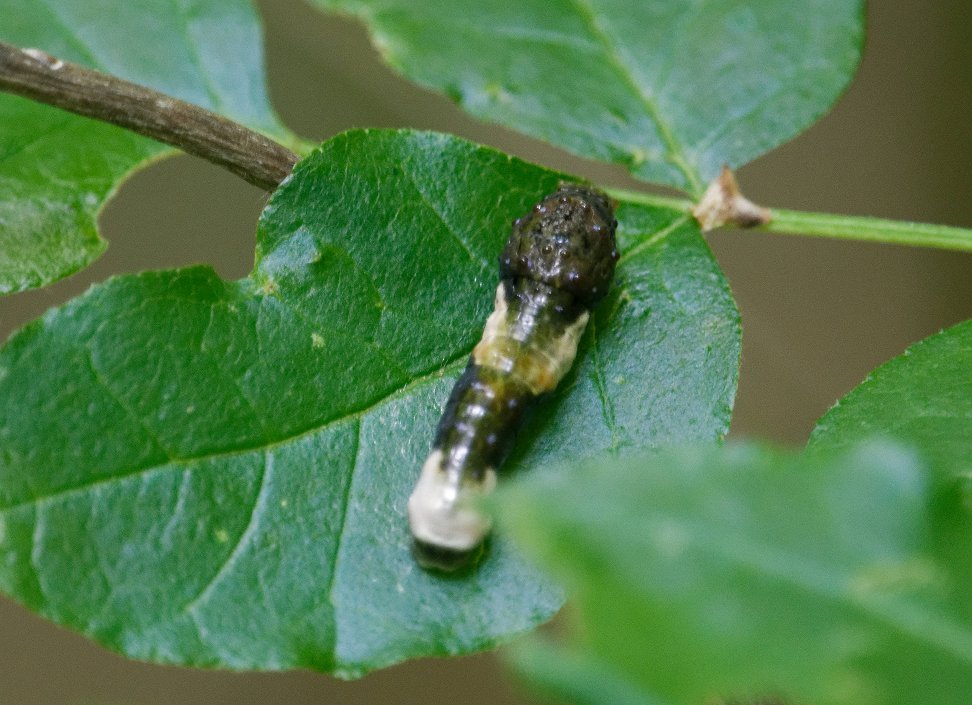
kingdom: Animalia
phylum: Arthropoda
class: Insecta
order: Lepidoptera
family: Papilionidae
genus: Papilio
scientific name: Papilio cresphontes
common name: Eastern Giant Swallowtail
